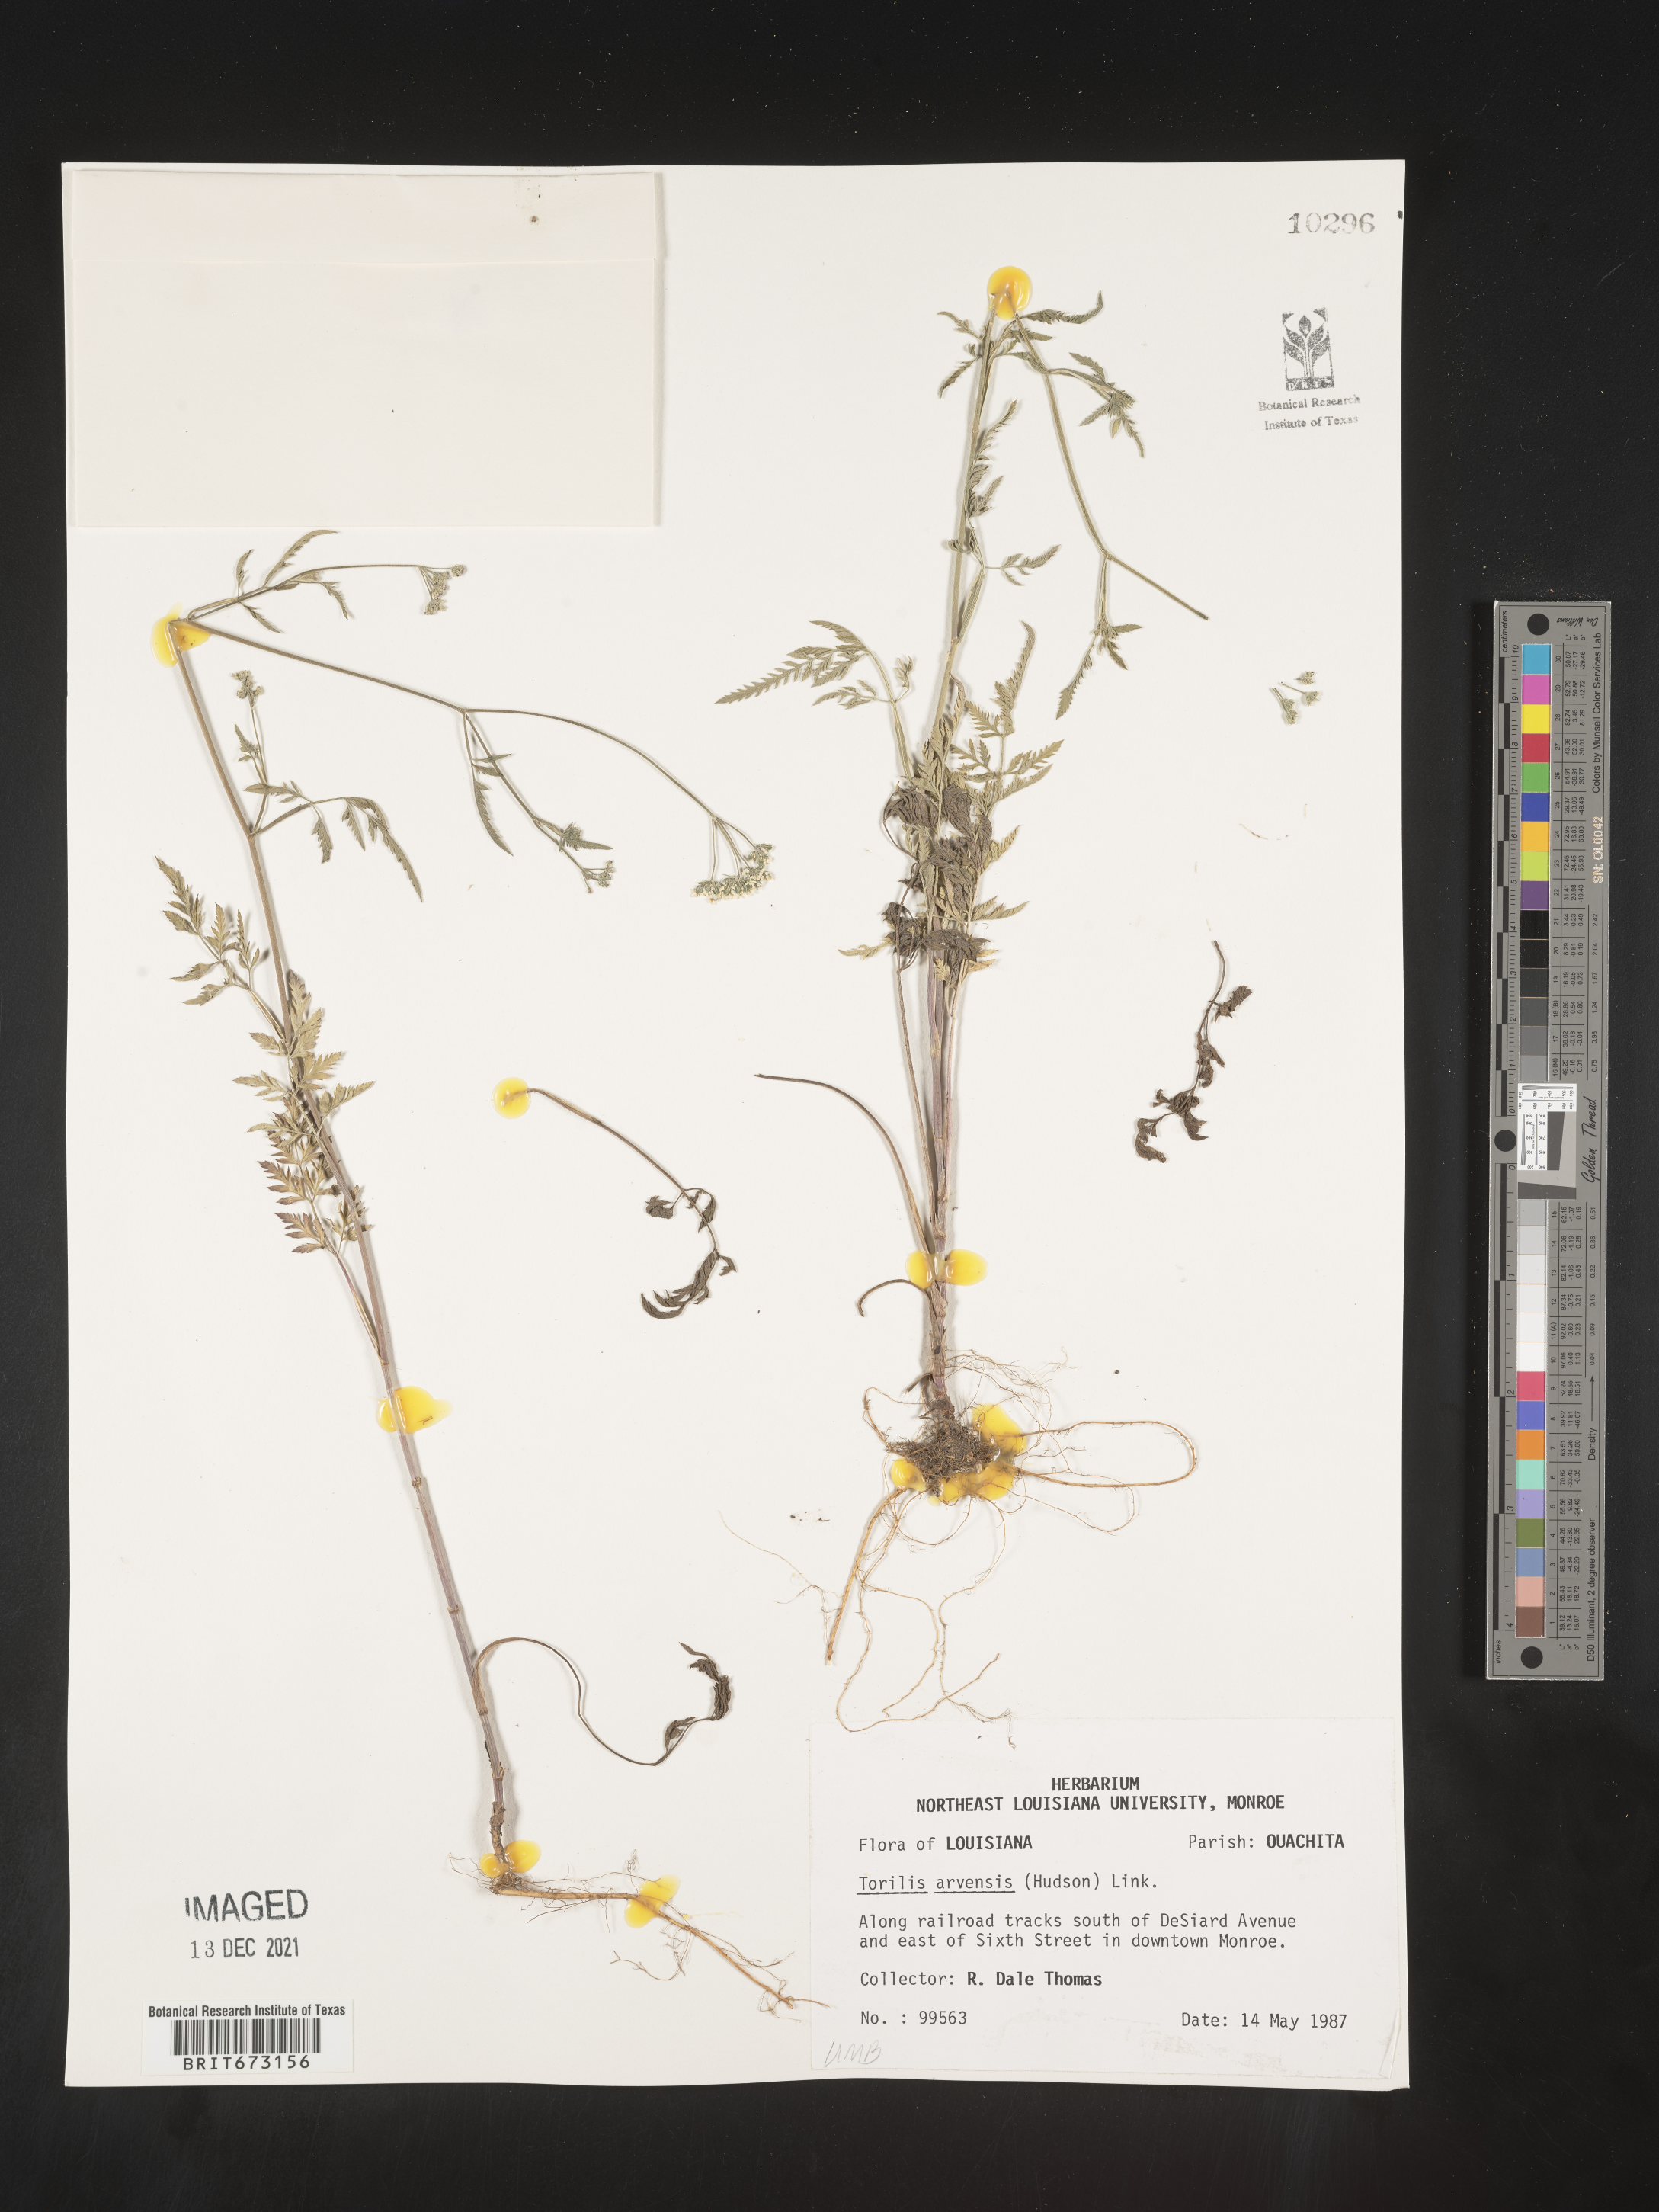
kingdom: Plantae
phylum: Tracheophyta
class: Magnoliopsida
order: Apiales
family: Apiaceae
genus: Torilis
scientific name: Torilis arvensis
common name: Spreading hedge-parsley
